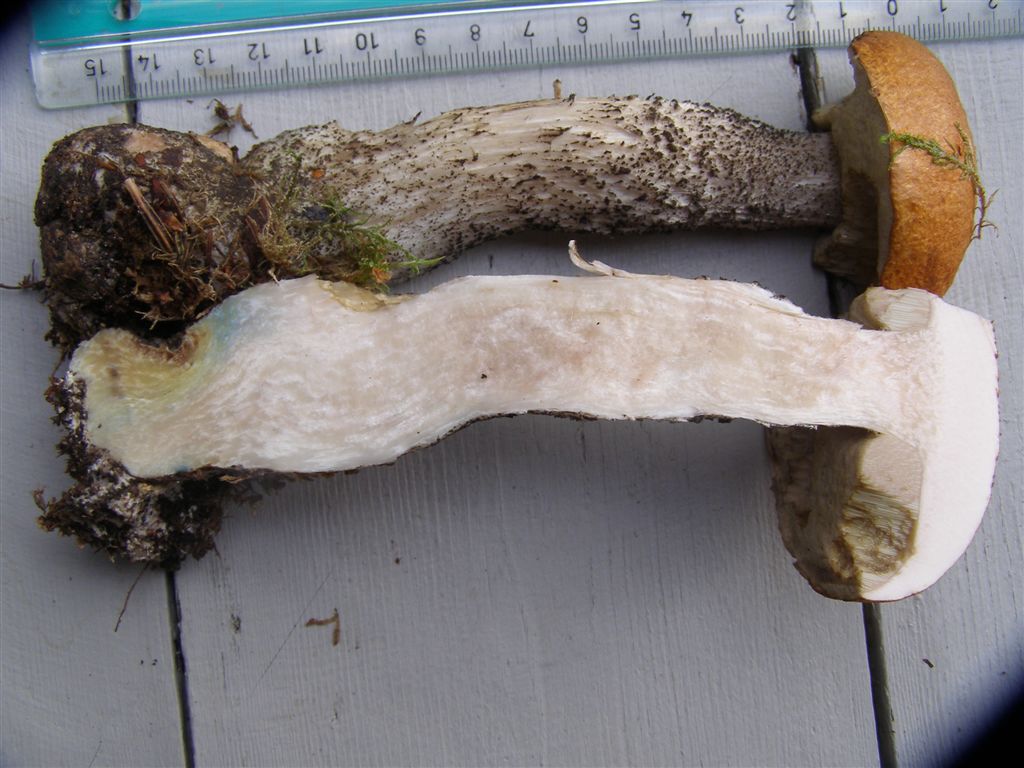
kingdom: Fungi
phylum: Basidiomycota
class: Agaricomycetes
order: Boletales
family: Boletaceae
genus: Leccinum
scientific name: Leccinum versipelle
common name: orange skælrørhat
